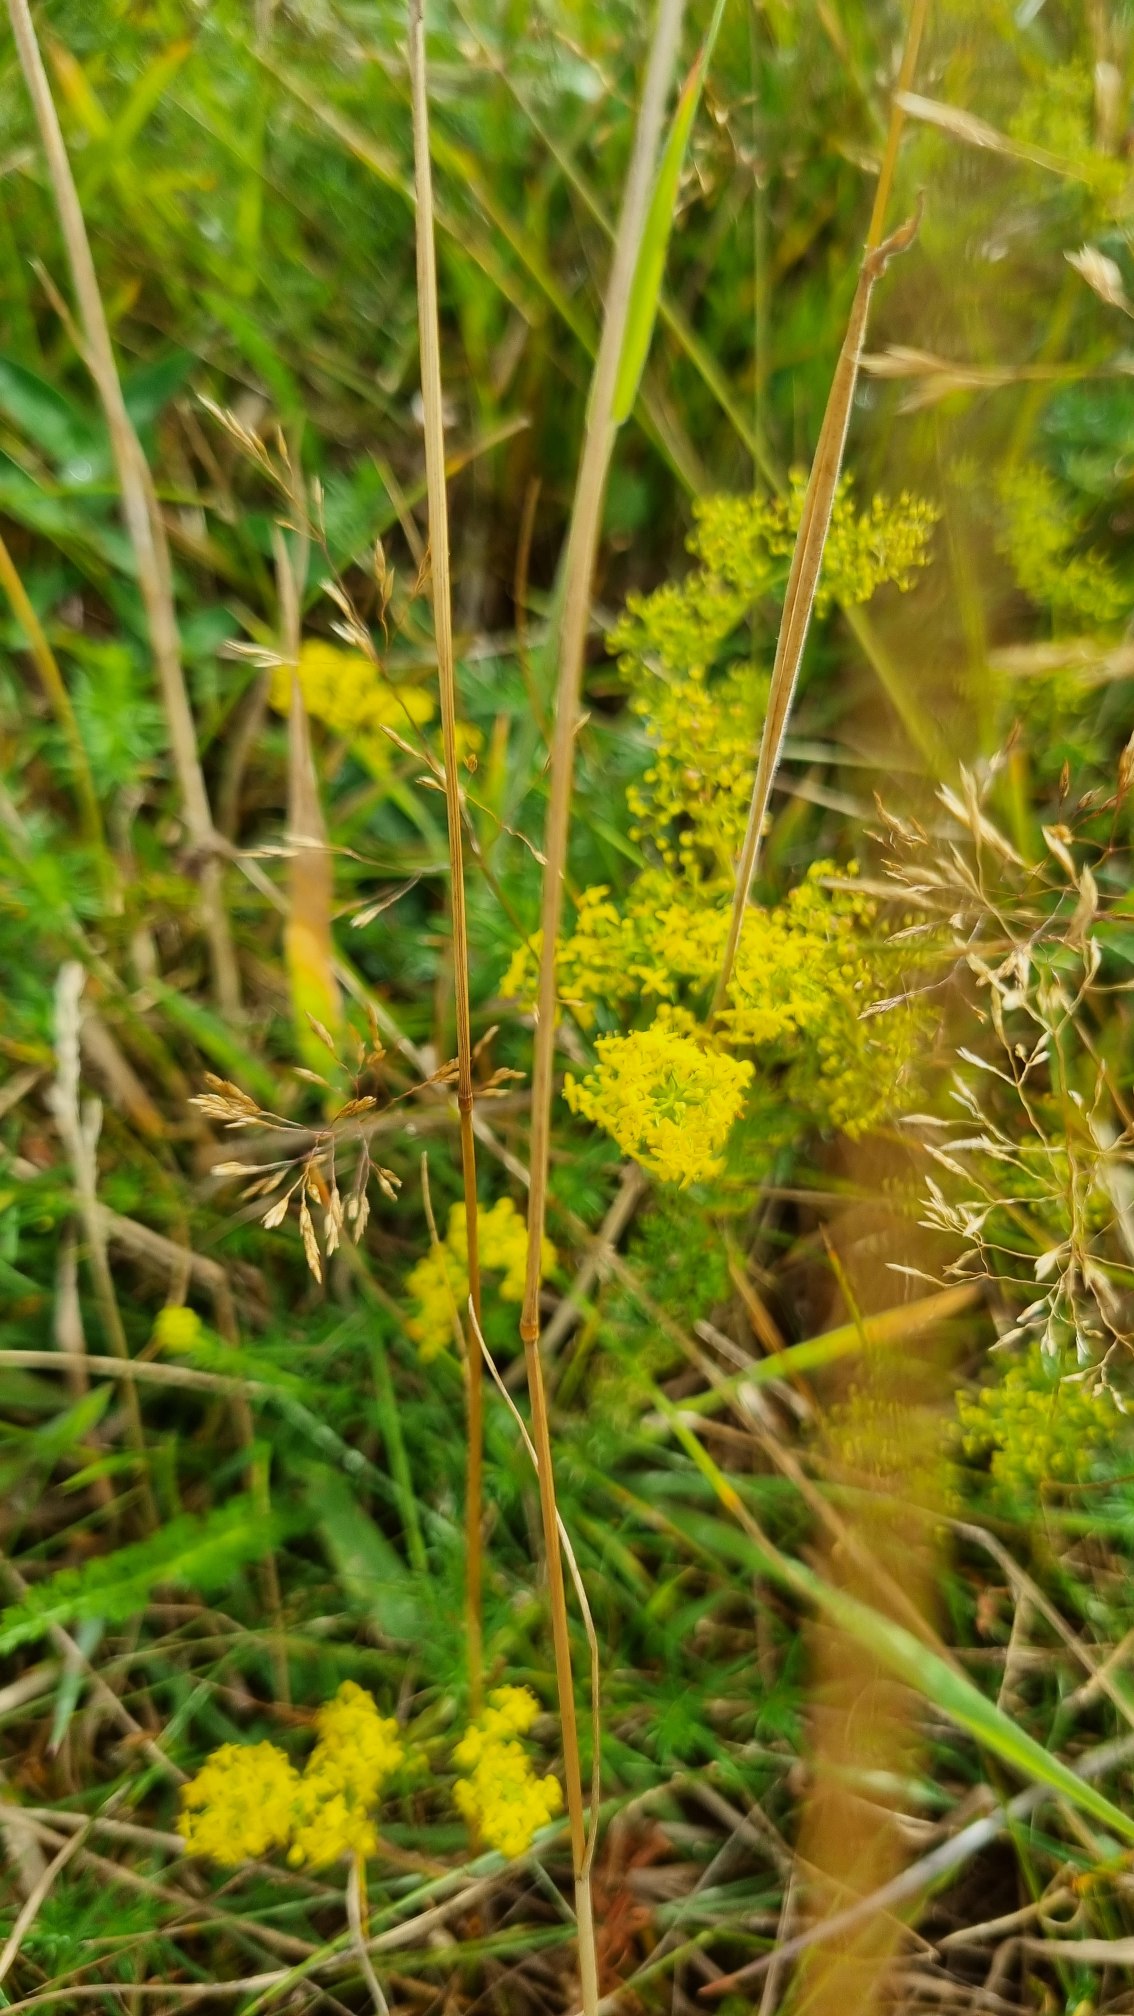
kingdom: Plantae
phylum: Tracheophyta
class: Magnoliopsida
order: Gentianales
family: Rubiaceae
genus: Galium
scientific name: Galium verum
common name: Gul snerre
